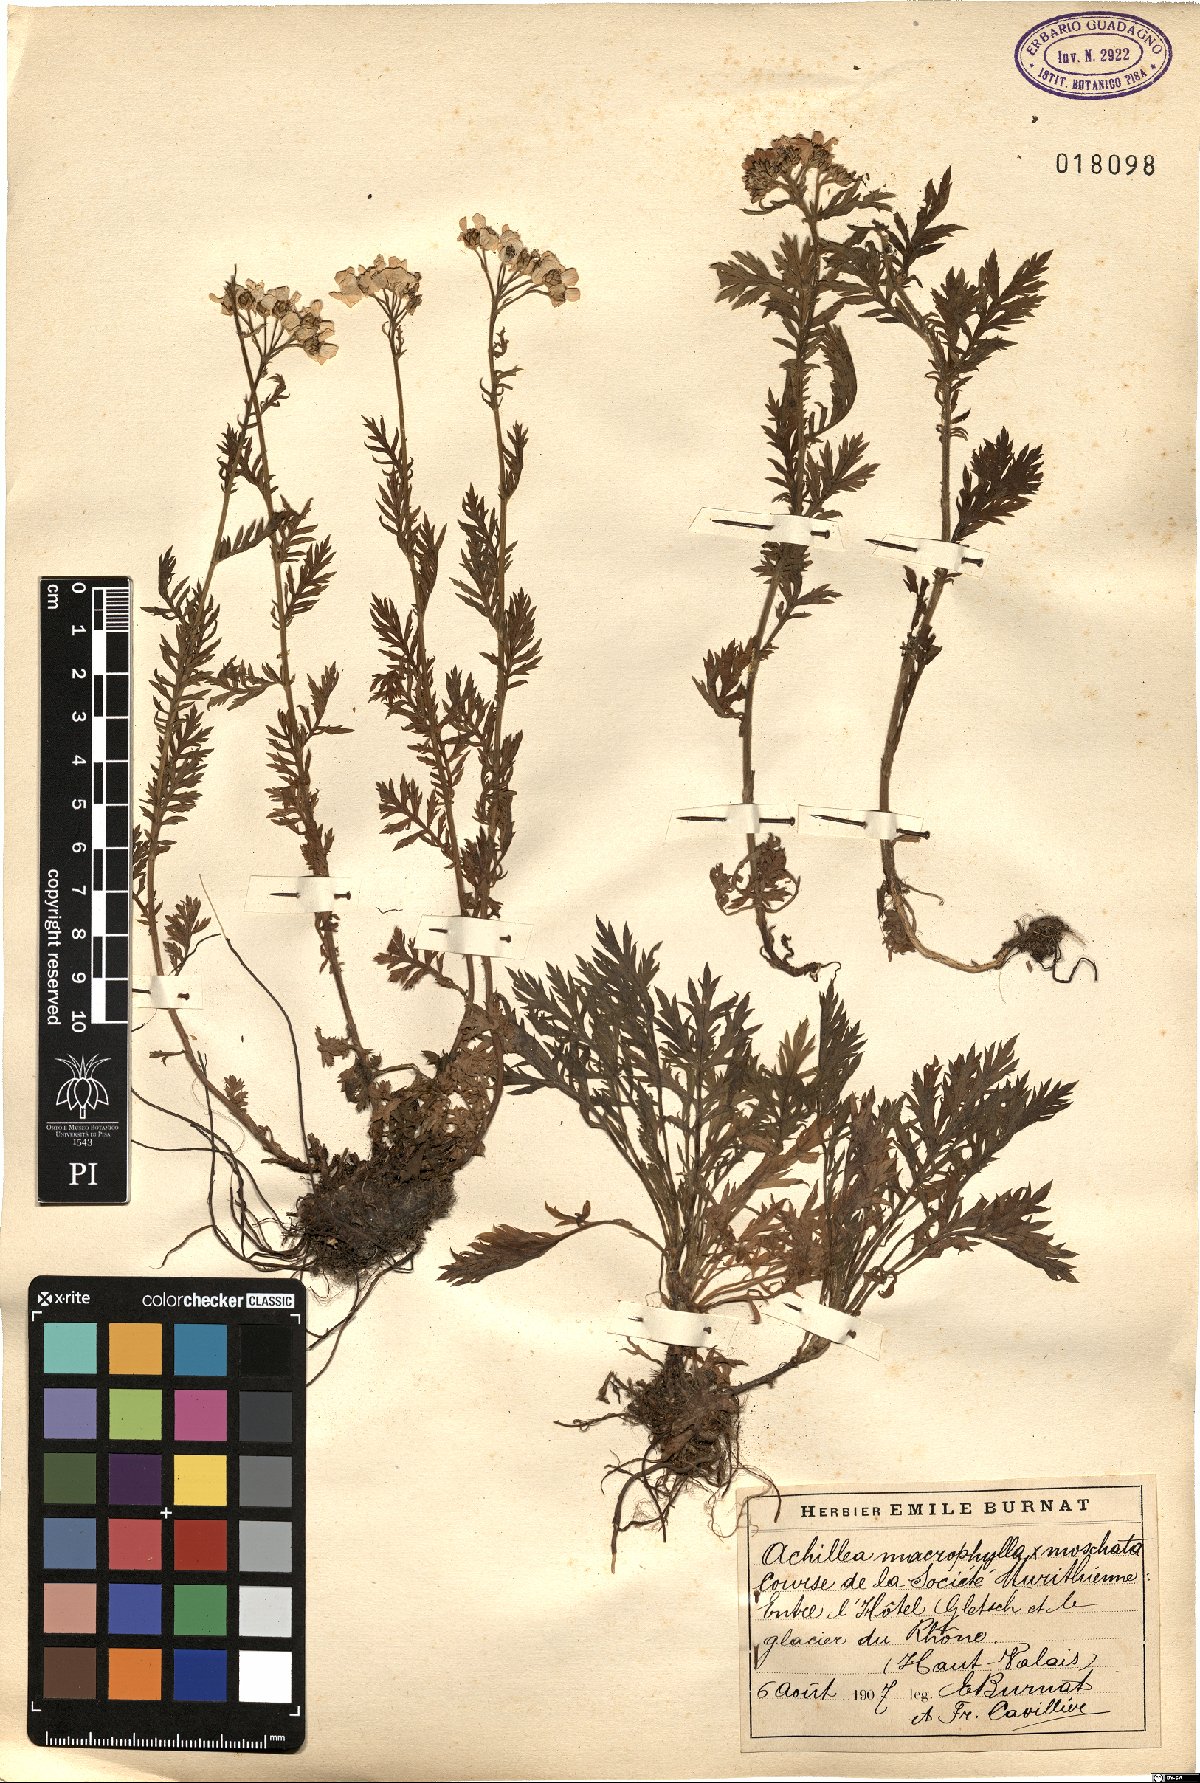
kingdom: Plantae
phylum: Tracheophyta
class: Magnoliopsida
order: Asterales
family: Asteraceae
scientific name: Asteraceae
